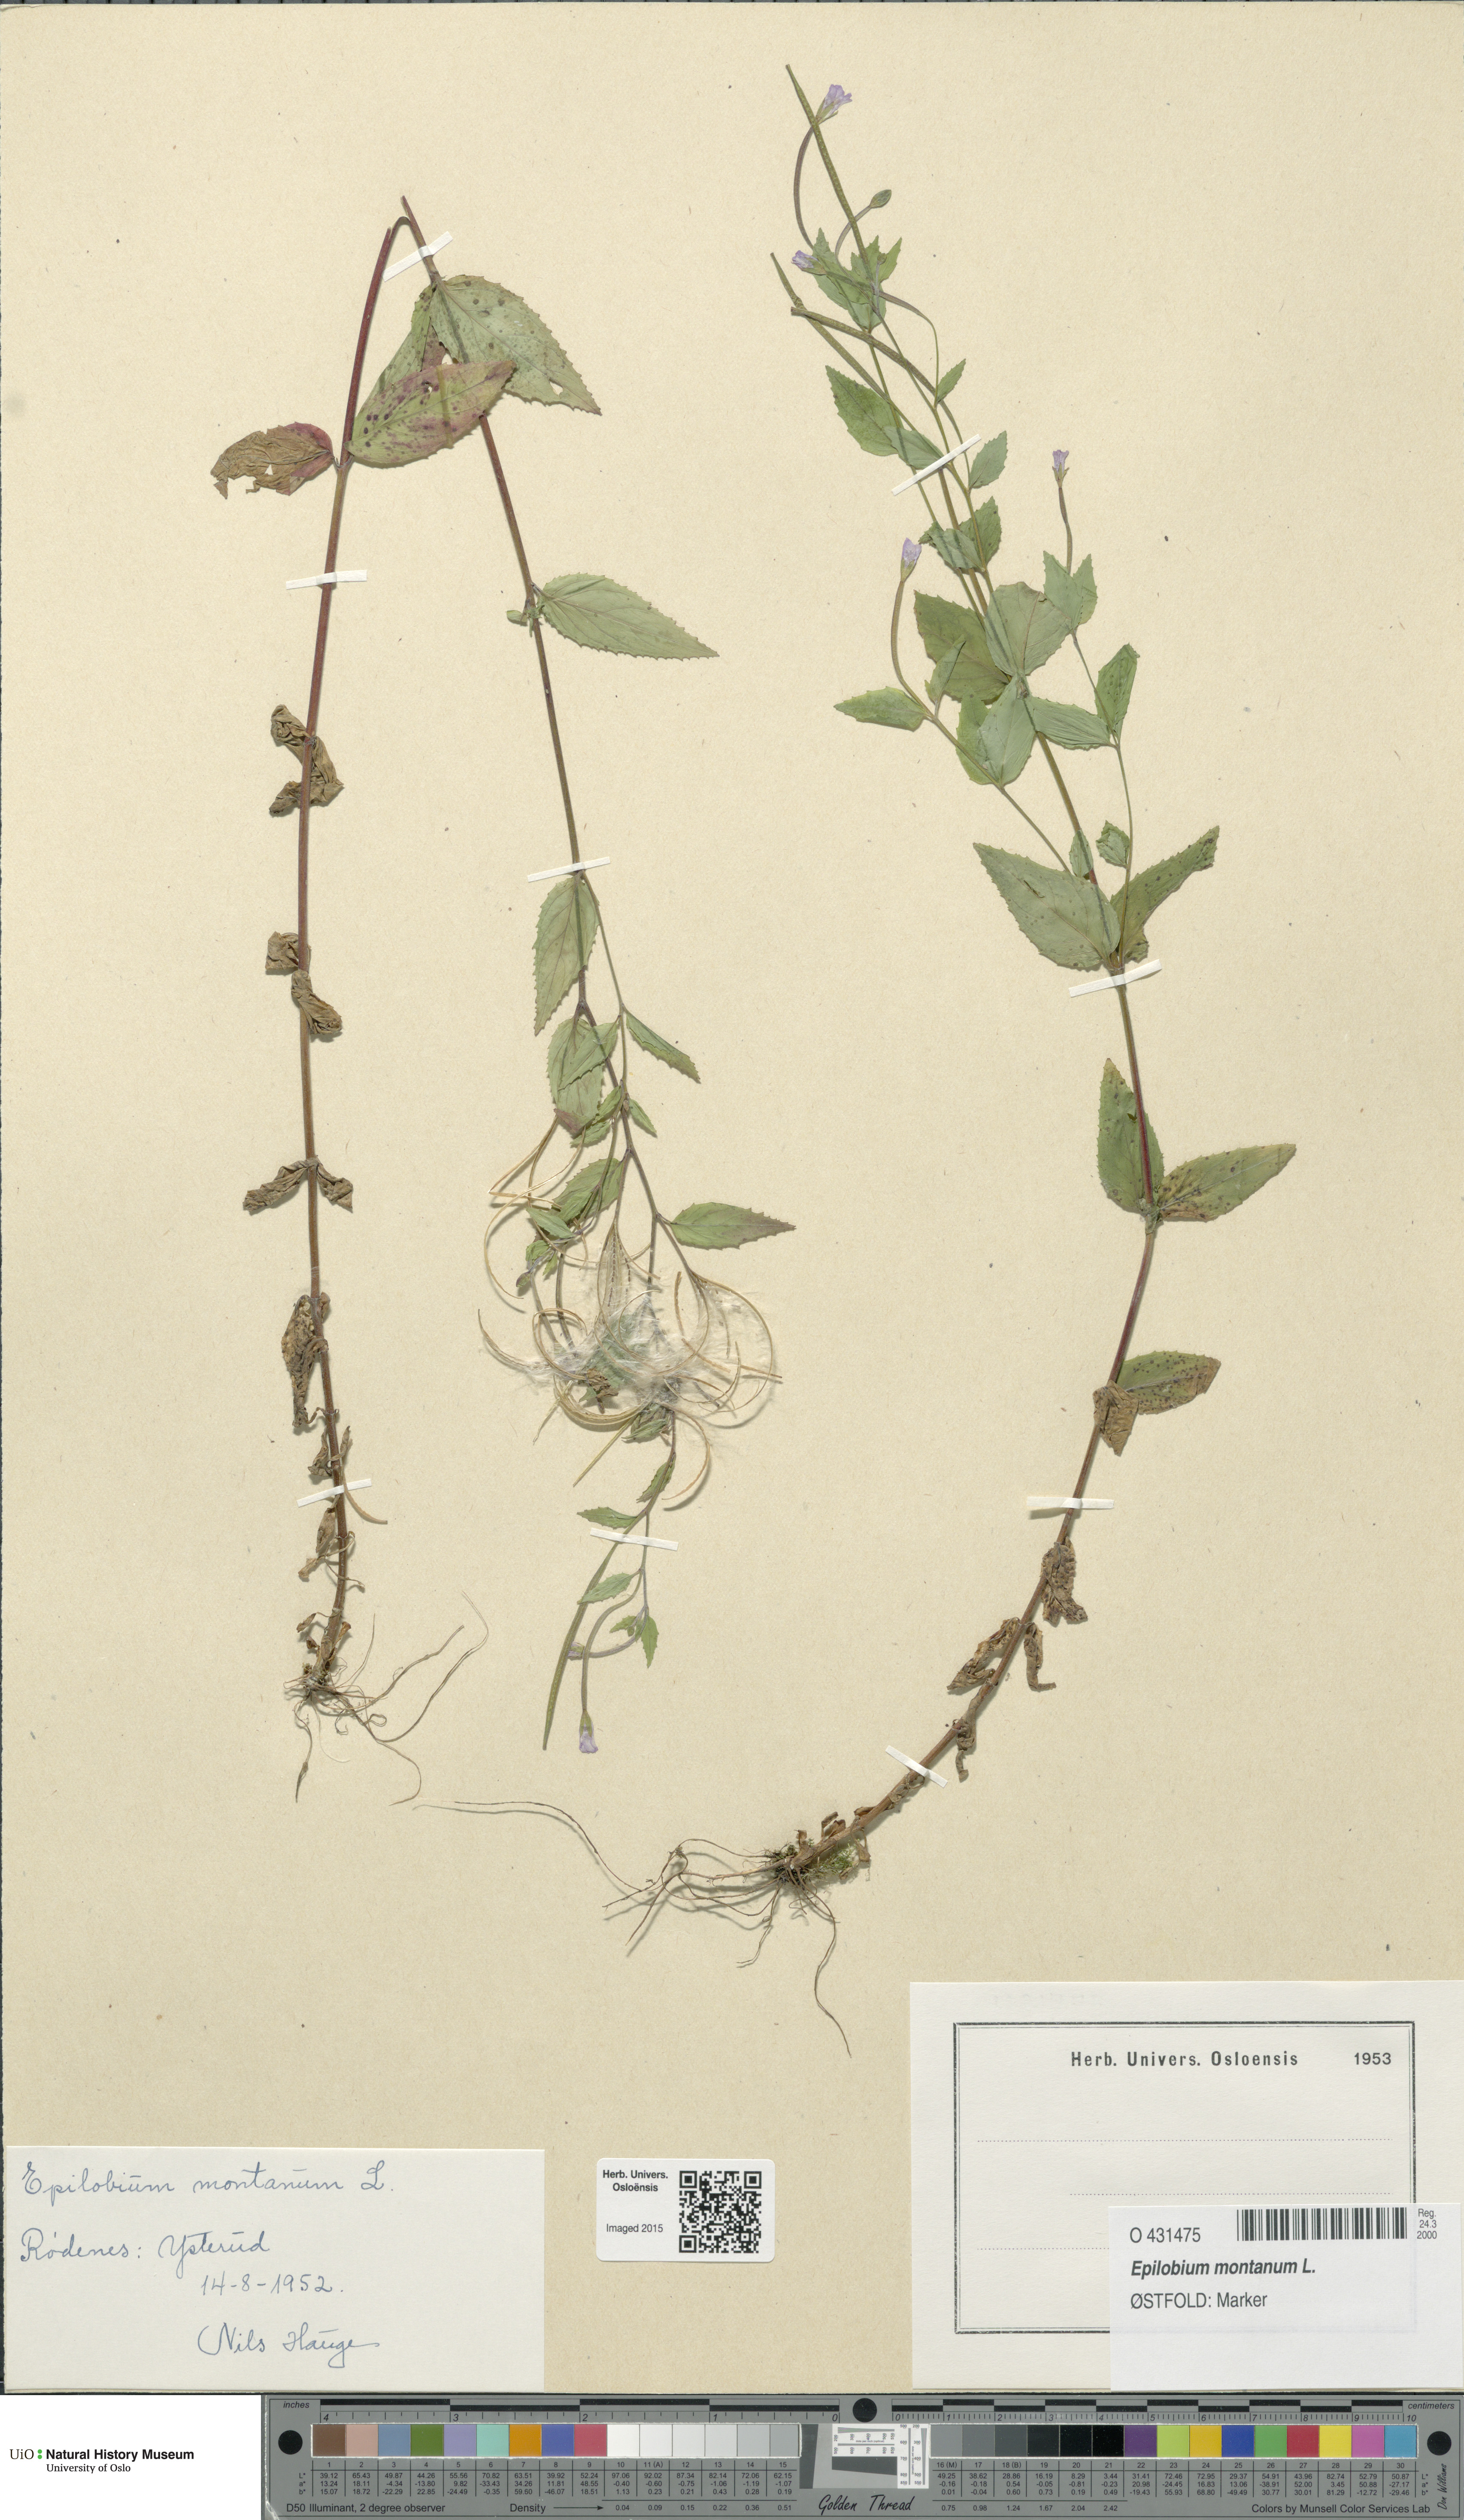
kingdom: Plantae
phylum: Tracheophyta
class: Magnoliopsida
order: Myrtales
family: Onagraceae
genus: Epilobium
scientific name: Epilobium montanum
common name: Broad-leaved willowherb
